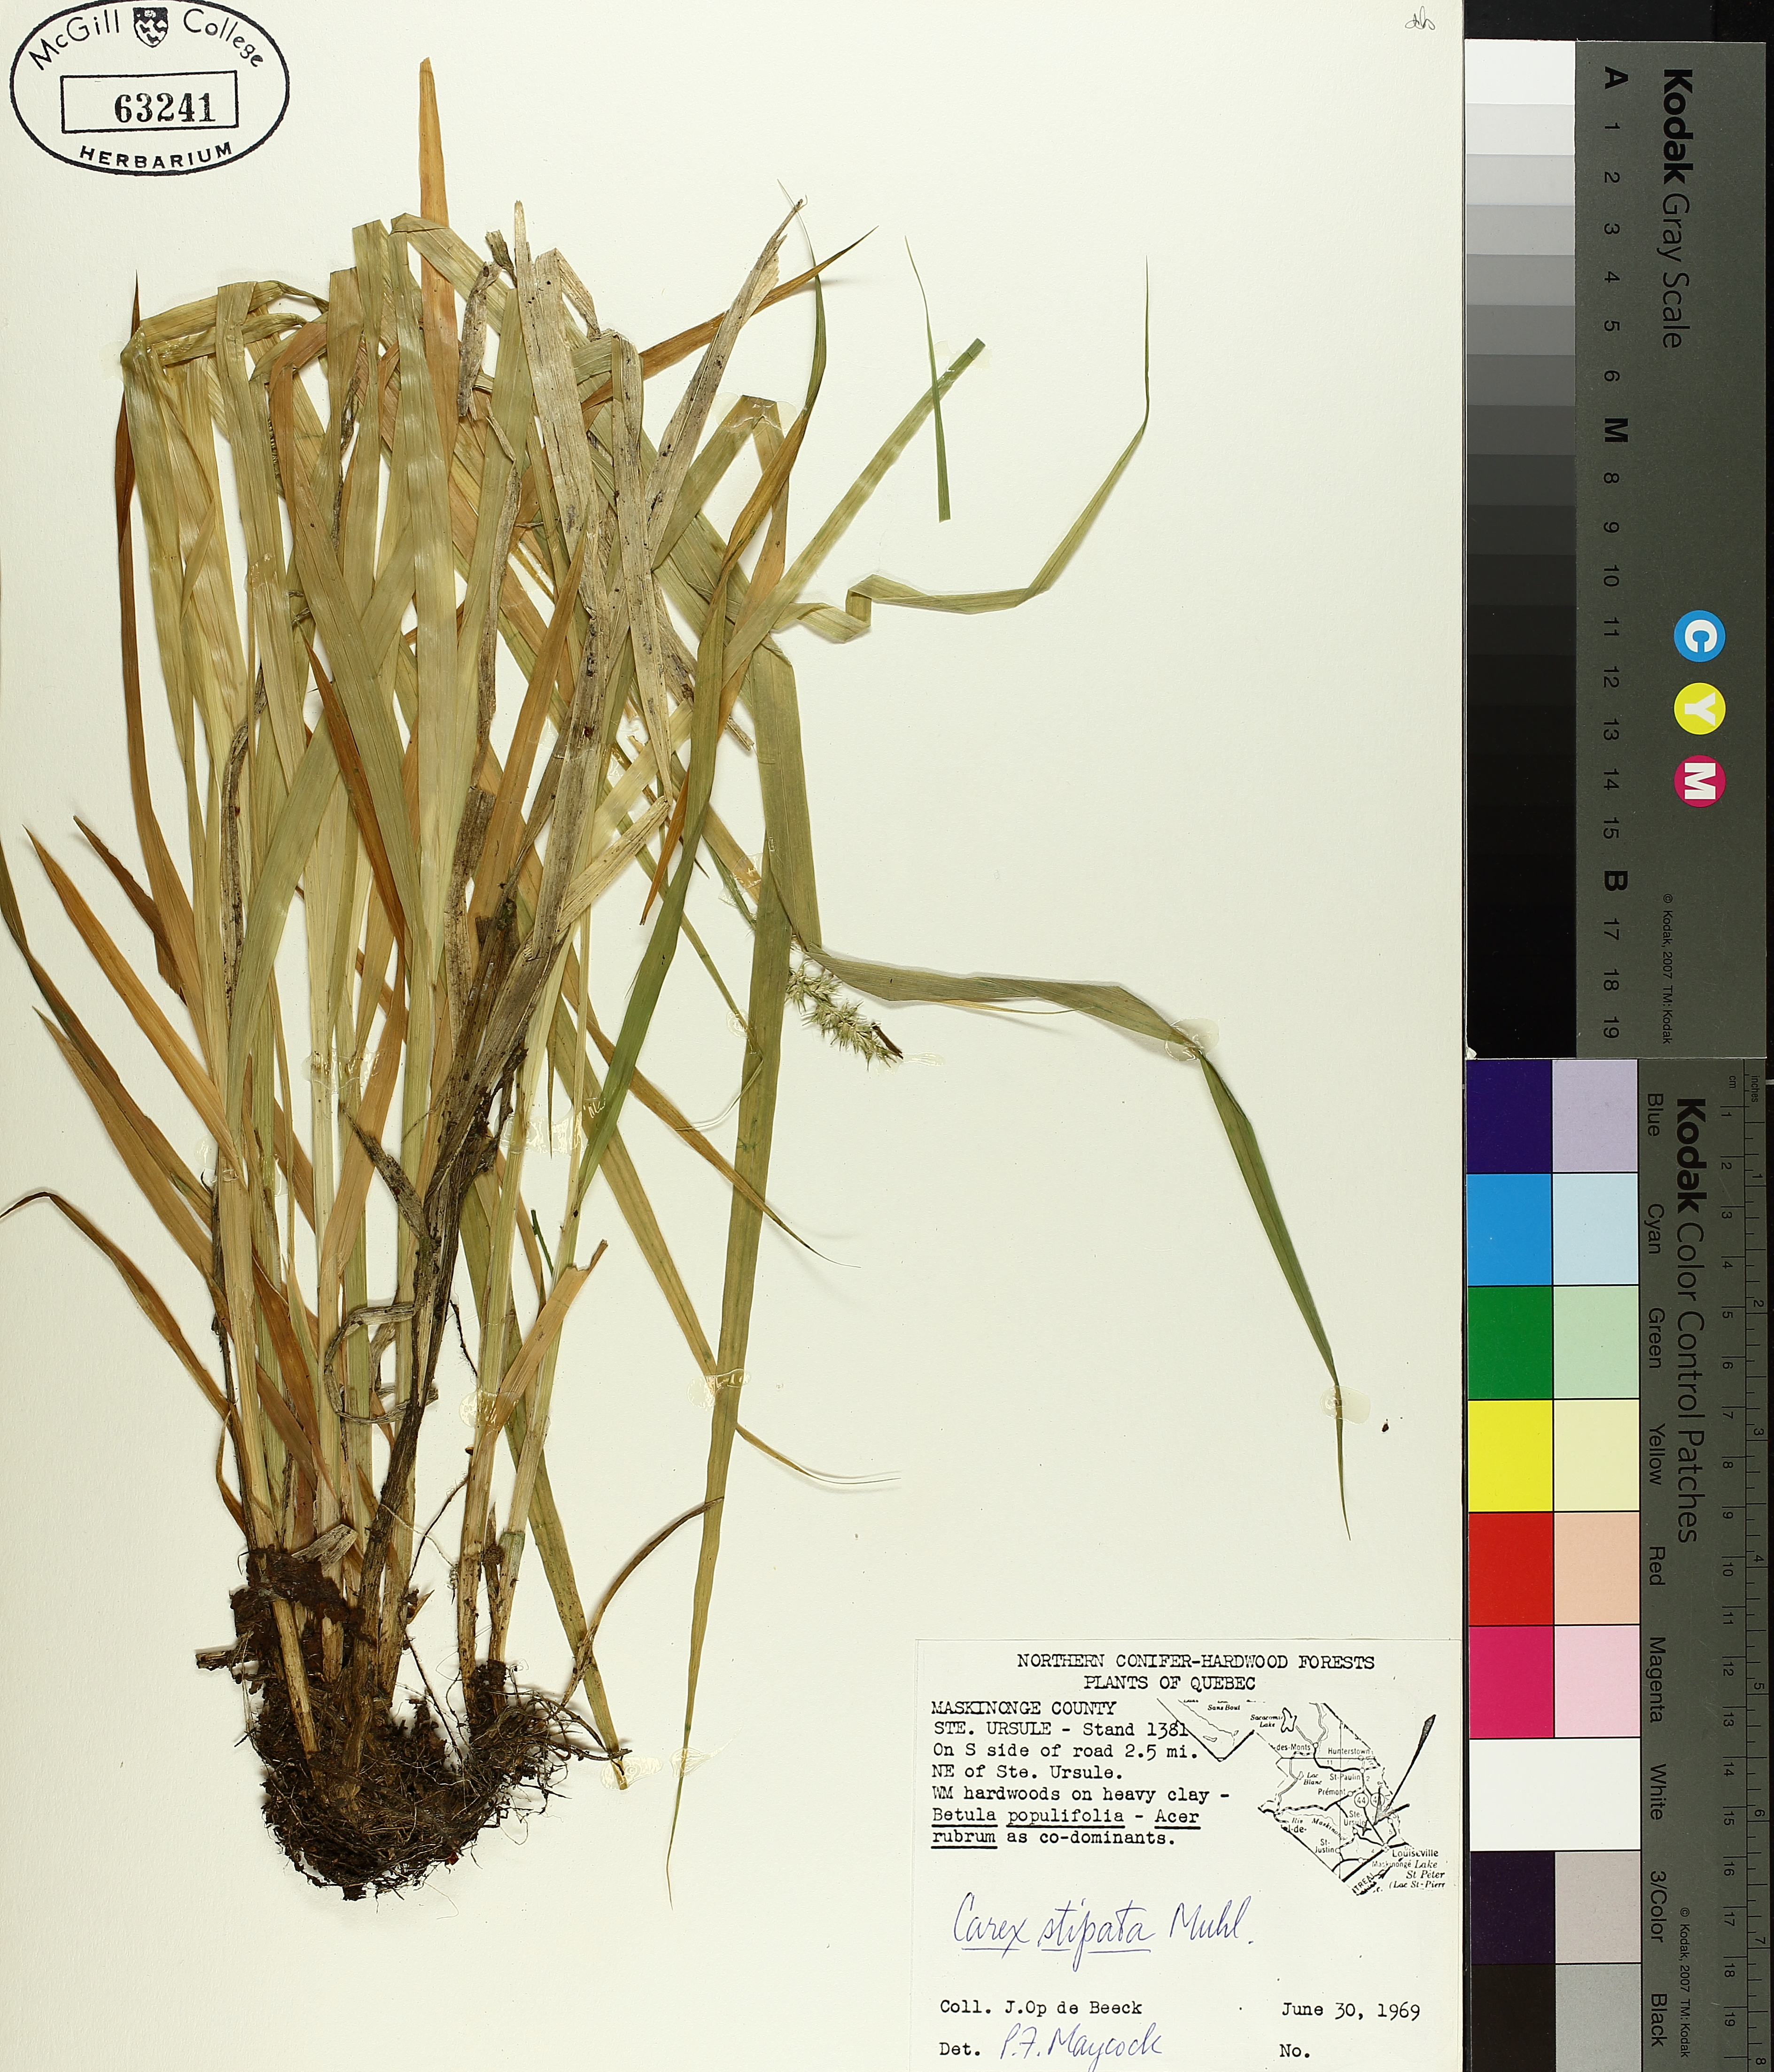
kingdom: Plantae
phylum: Tracheophyta
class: Liliopsida
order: Poales
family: Cyperaceae
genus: Carex
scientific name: Carex stipata
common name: Awl-fruited sedge
